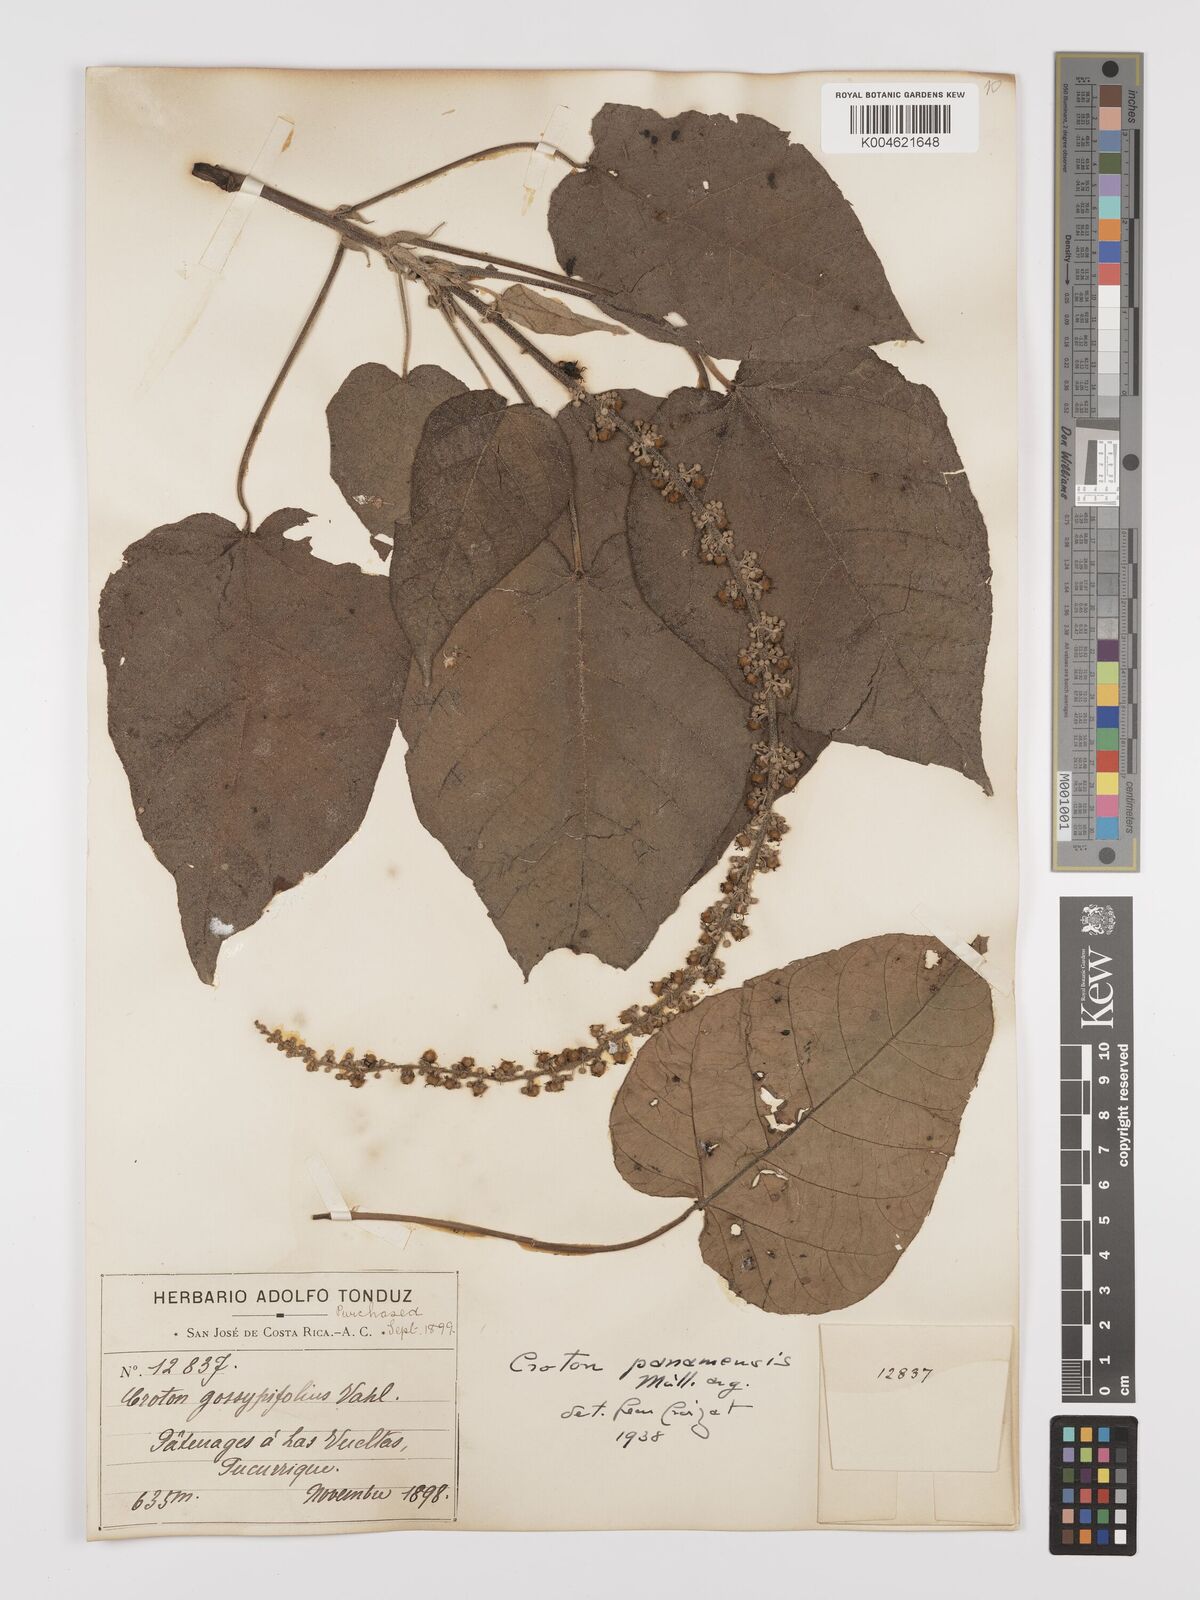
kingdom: Plantae
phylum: Tracheophyta
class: Magnoliopsida
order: Malpighiales
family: Euphorbiaceae
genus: Croton
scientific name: Croton draco
